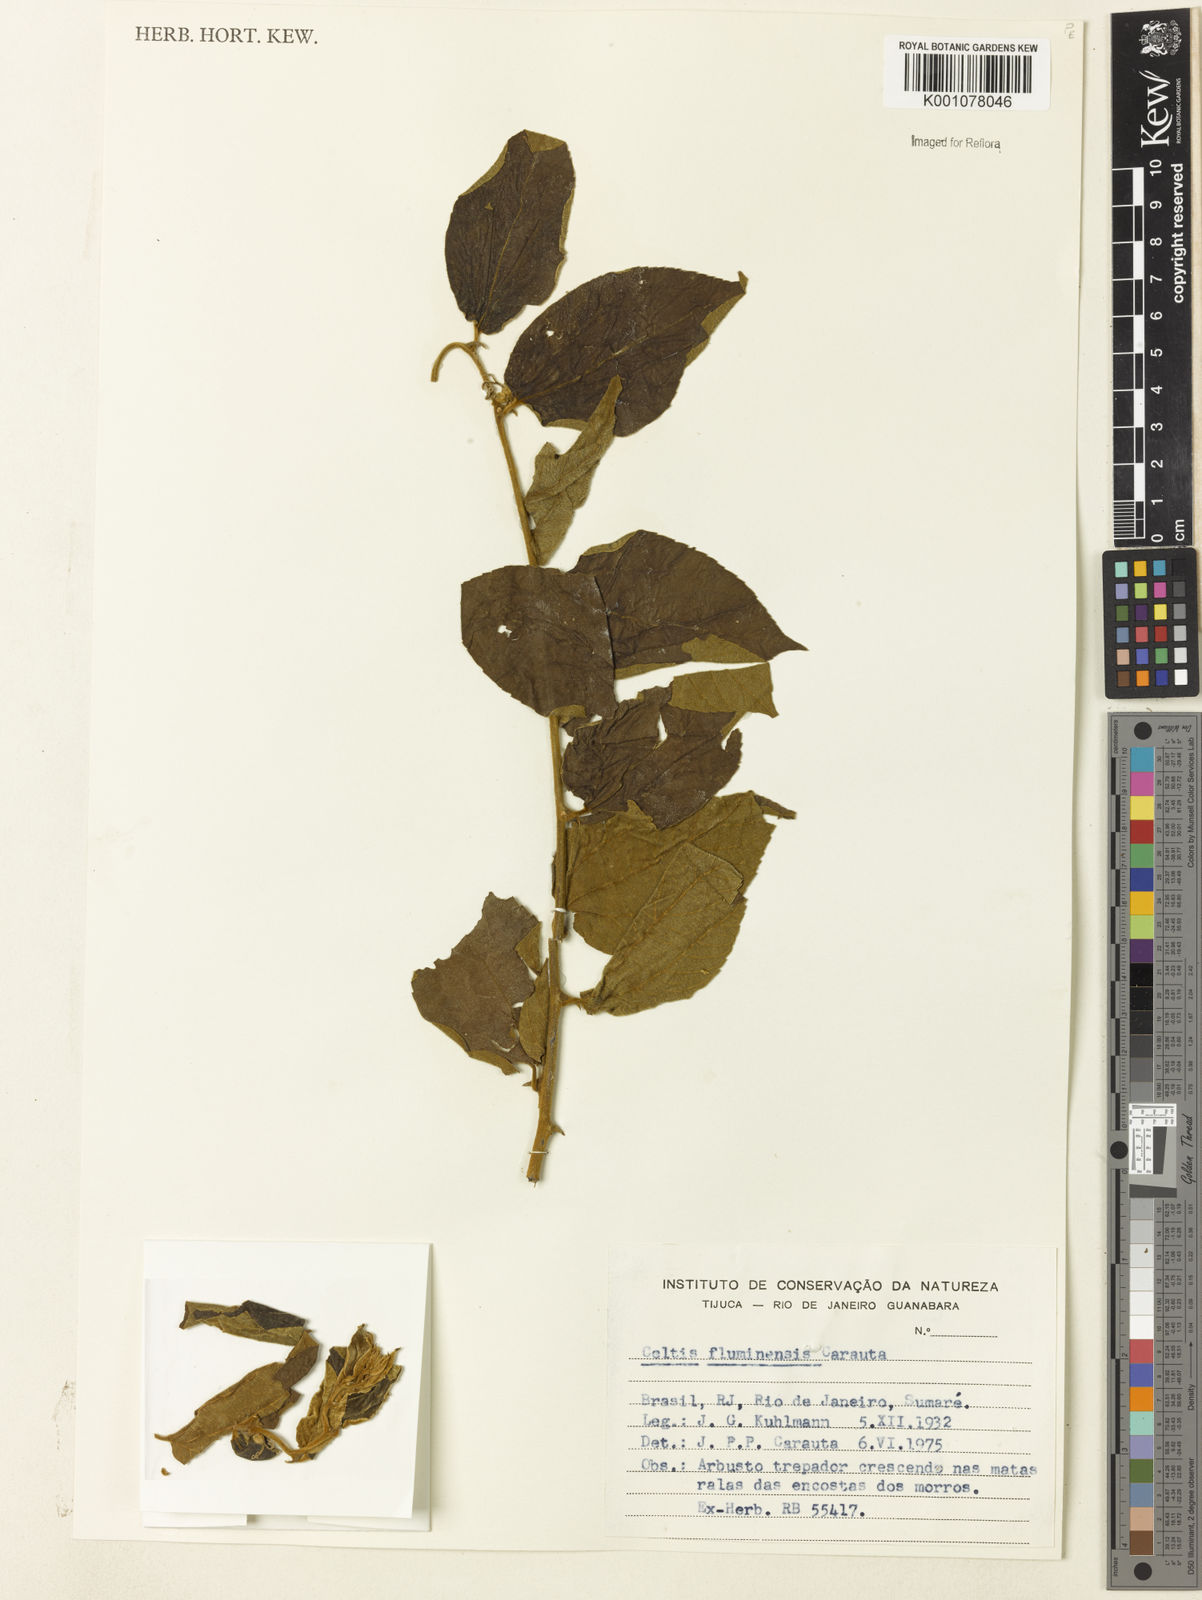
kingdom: Plantae
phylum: Tracheophyta
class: Magnoliopsida
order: Rosales
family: Cannabaceae
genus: Celtis
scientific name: Celtis brasiliensis
